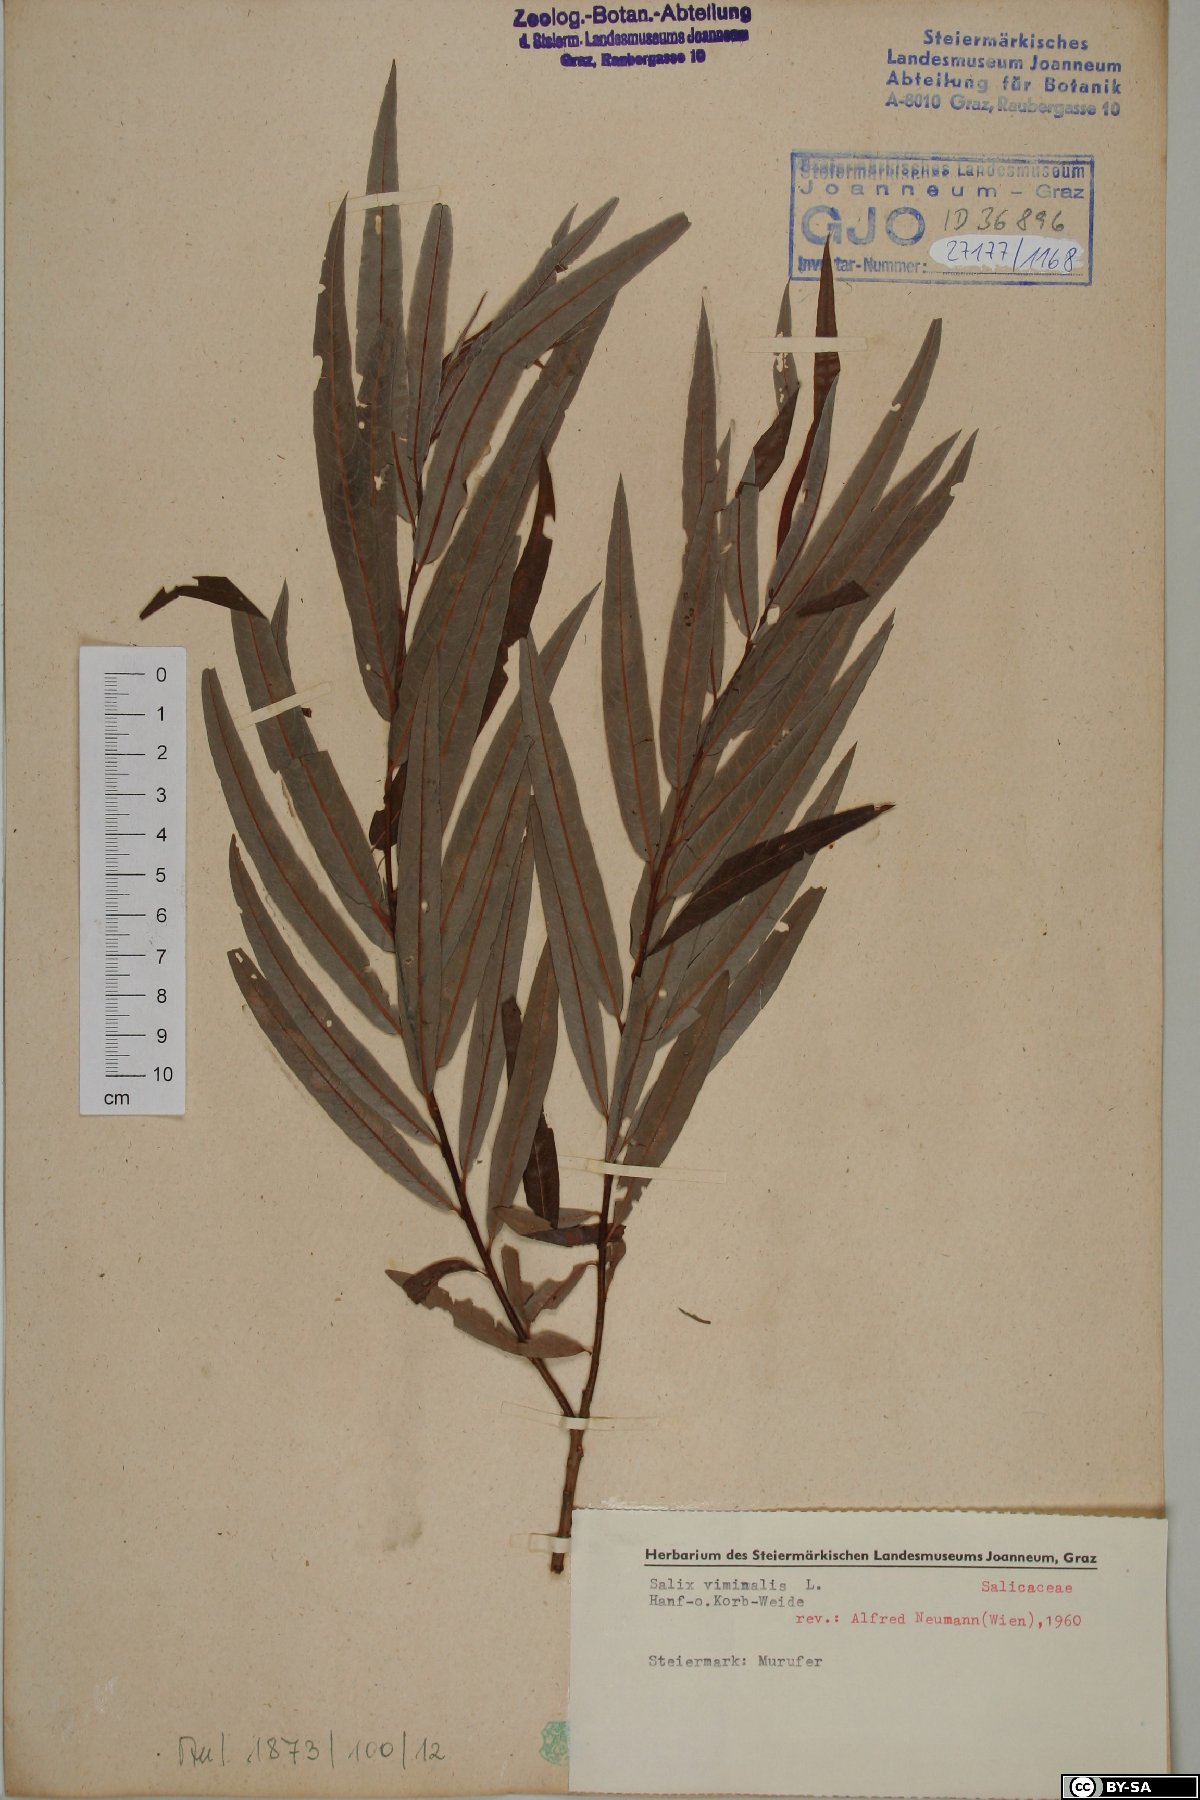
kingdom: Plantae
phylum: Tracheophyta
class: Magnoliopsida
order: Malpighiales
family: Salicaceae
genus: Salix
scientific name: Salix viminalis
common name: Osier
